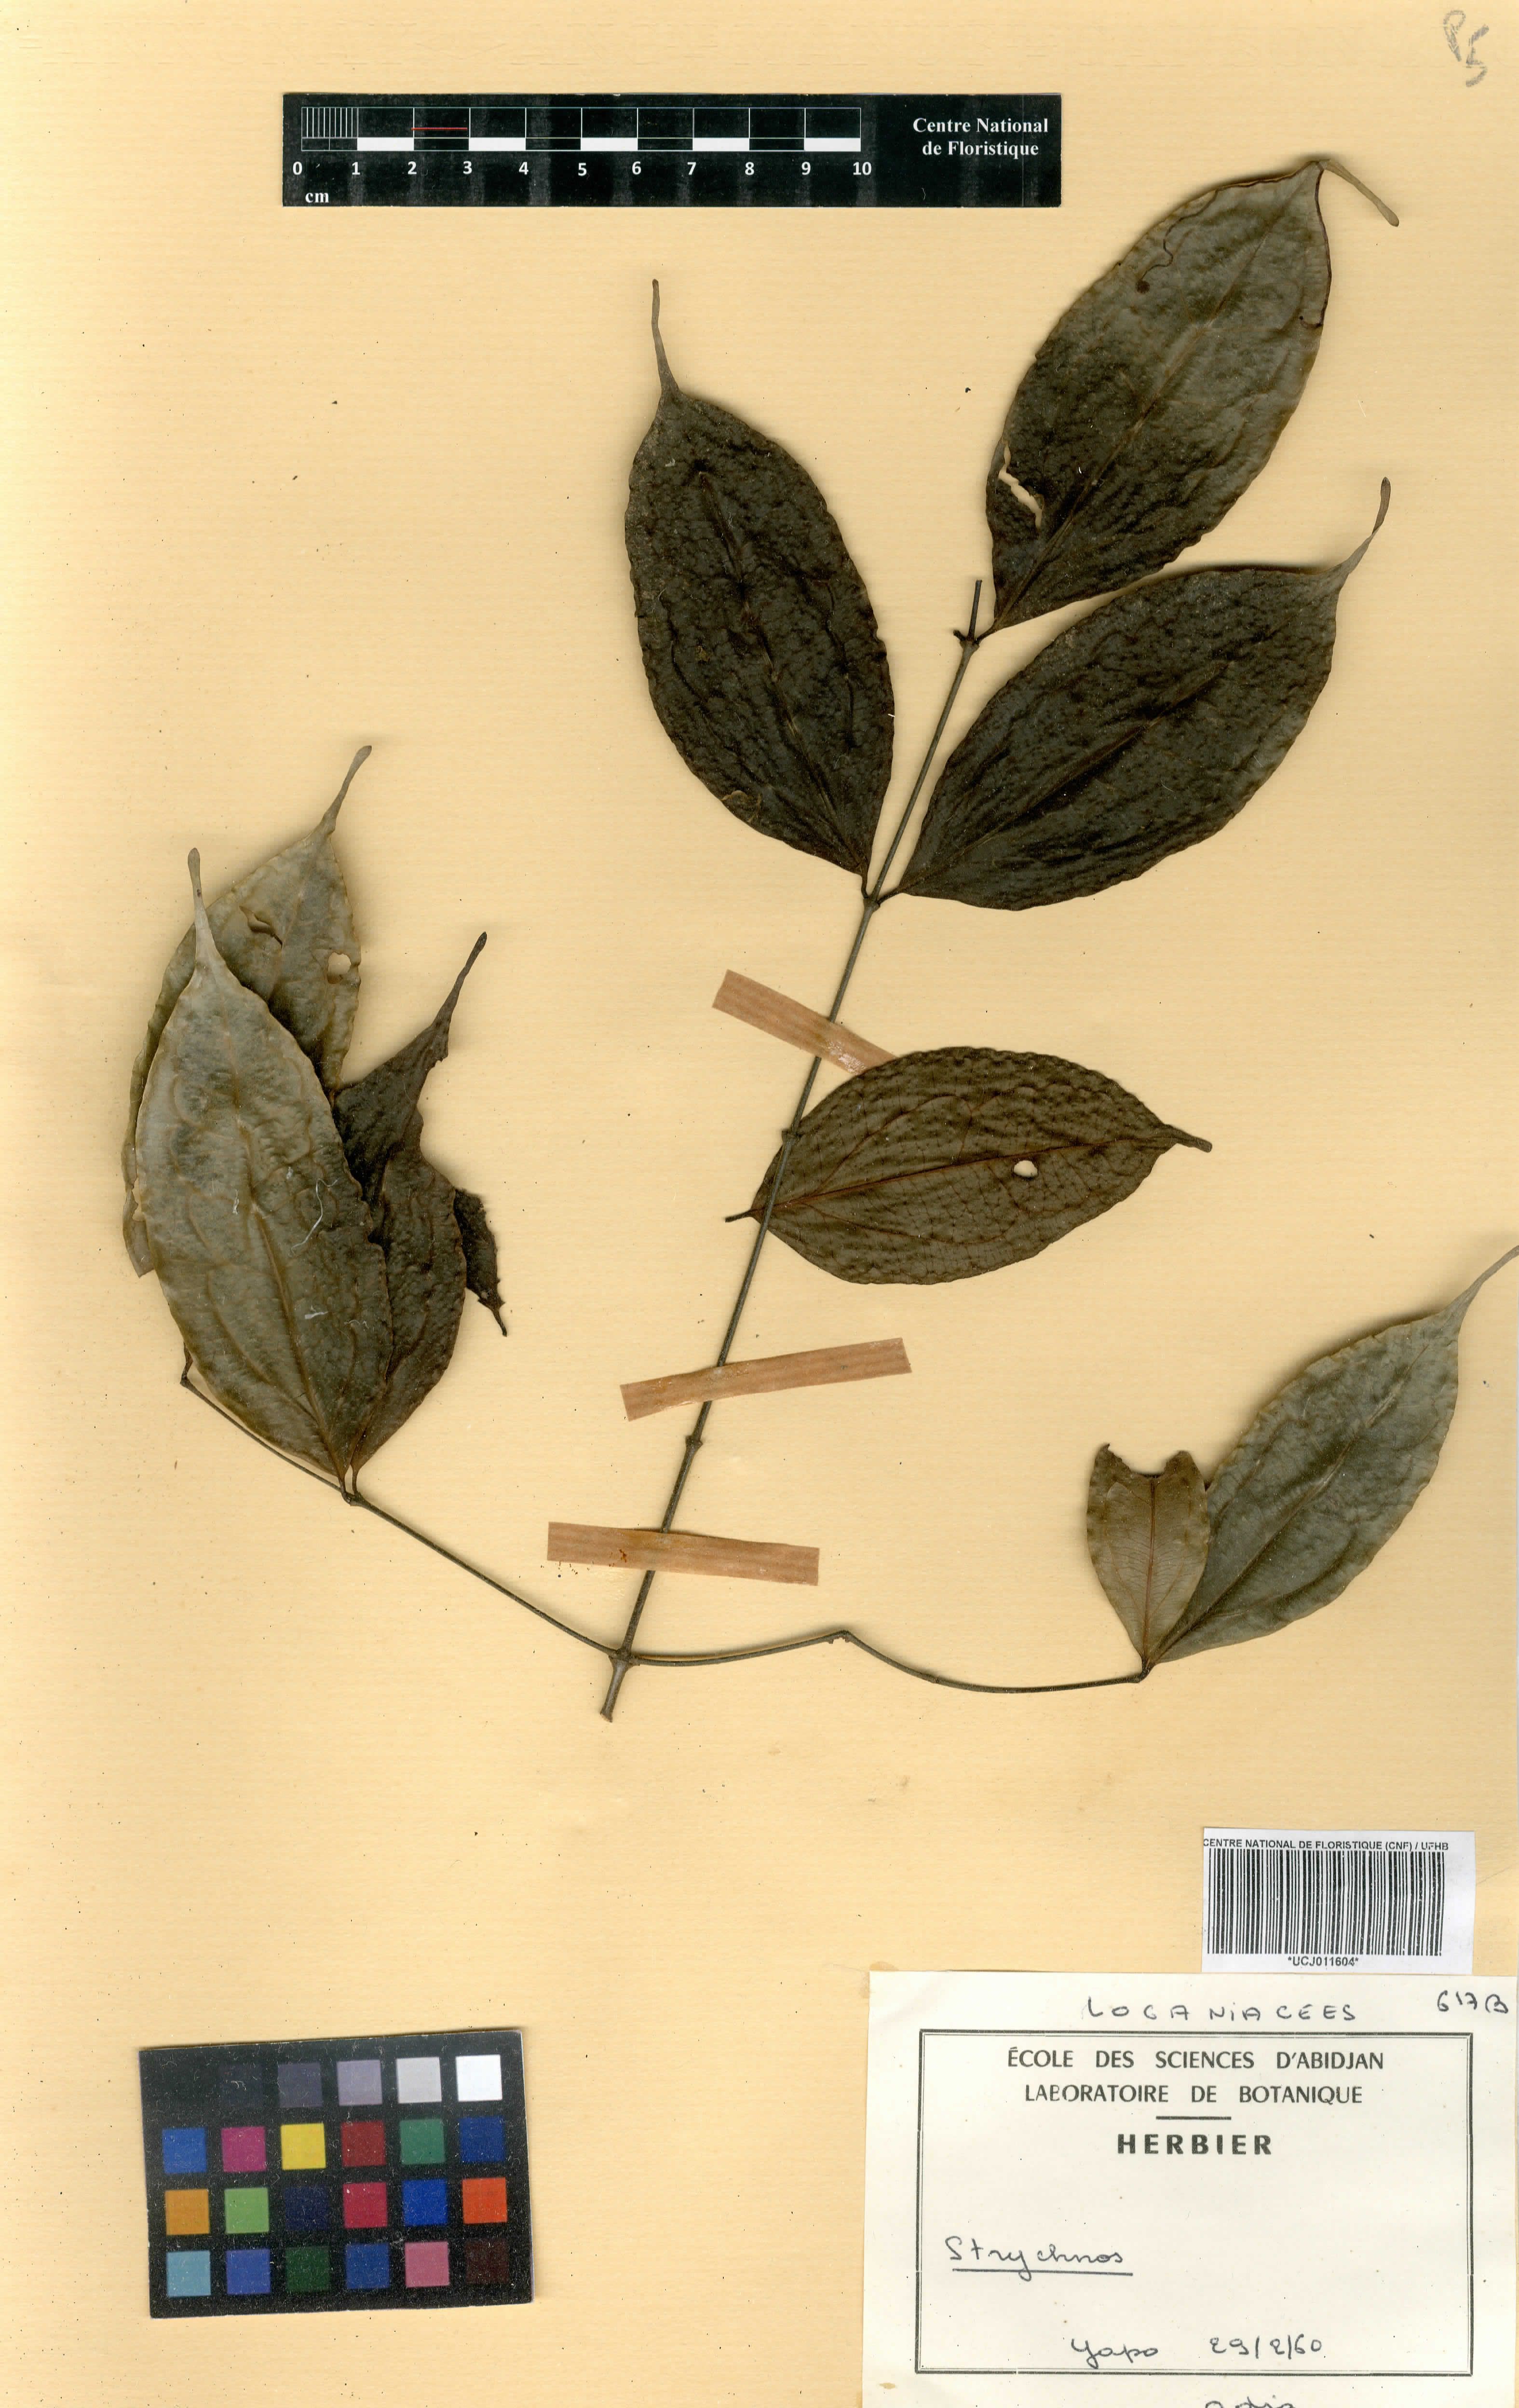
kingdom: Plantae
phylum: Tracheophyta
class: Magnoliopsida
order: Gentianales
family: Loganiaceae
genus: Strychnos
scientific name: Strychnos
